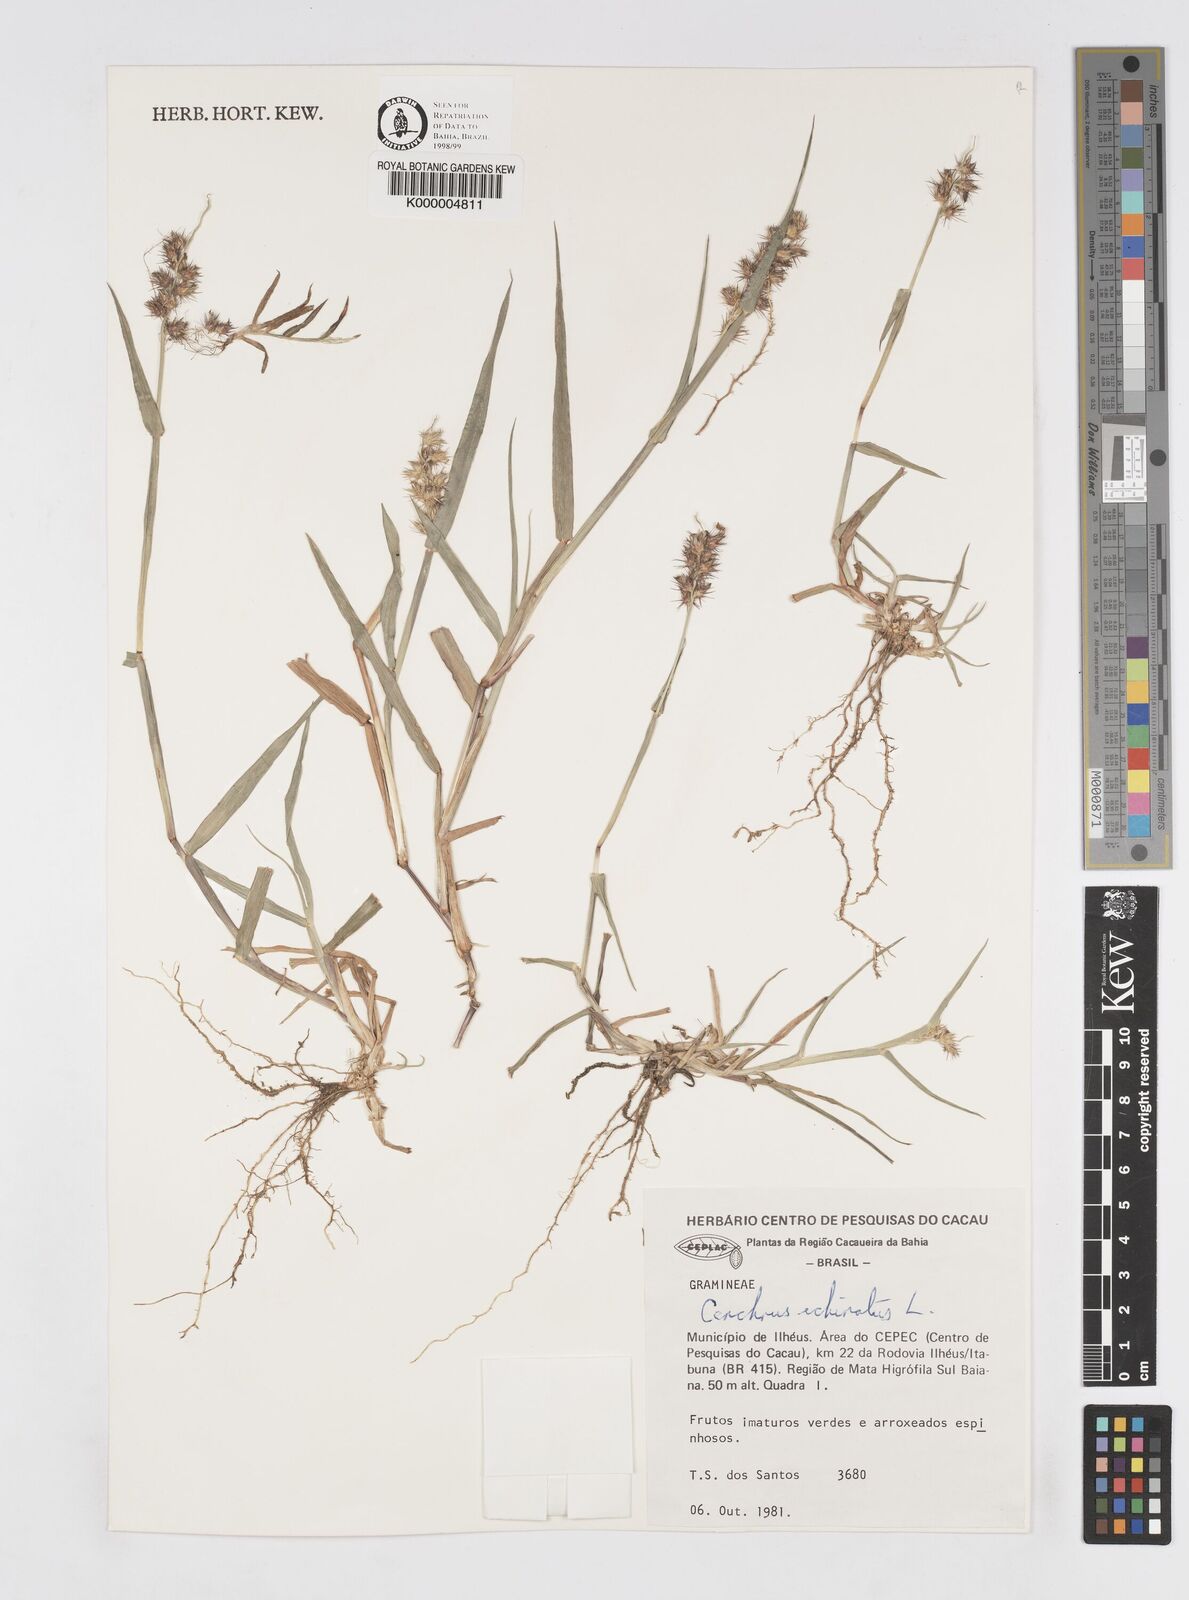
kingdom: Plantae
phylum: Tracheophyta
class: Liliopsida
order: Poales
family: Poaceae
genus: Cenchrus
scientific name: Cenchrus echinatus
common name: Southern sandbur
